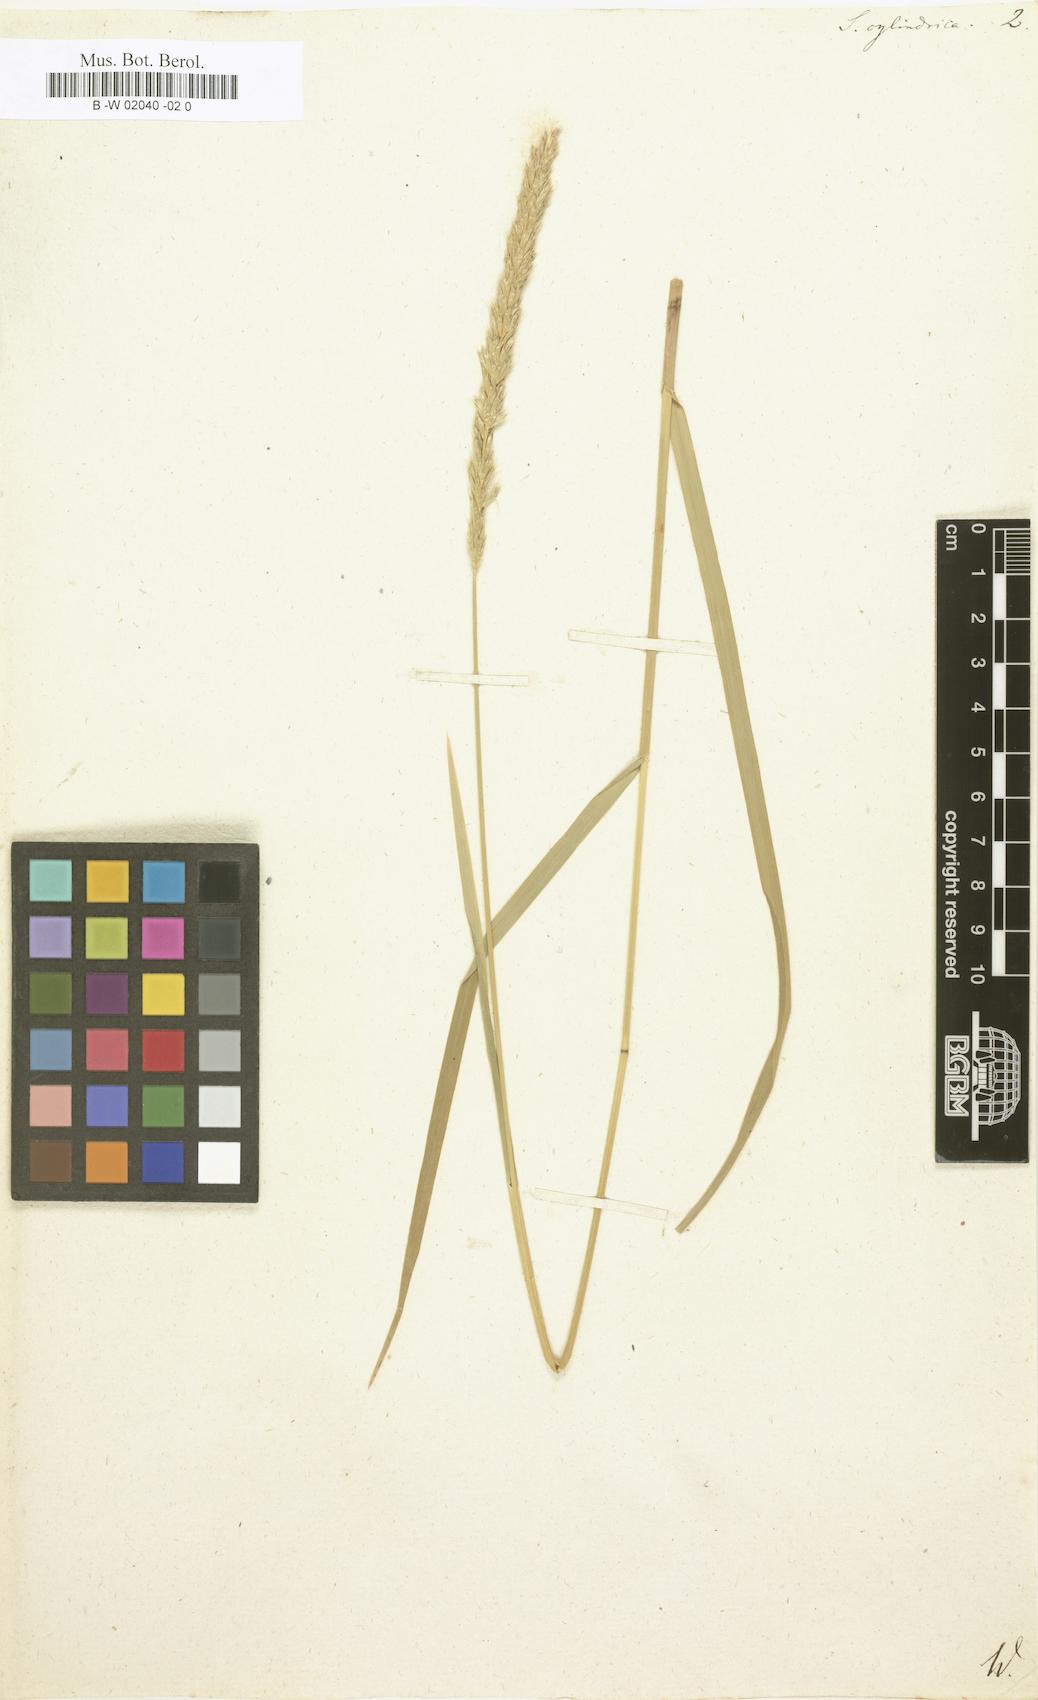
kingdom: Plantae
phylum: Tracheophyta
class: Liliopsida
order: Poales
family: Poaceae
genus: Sesleria
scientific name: Sesleria argentea
